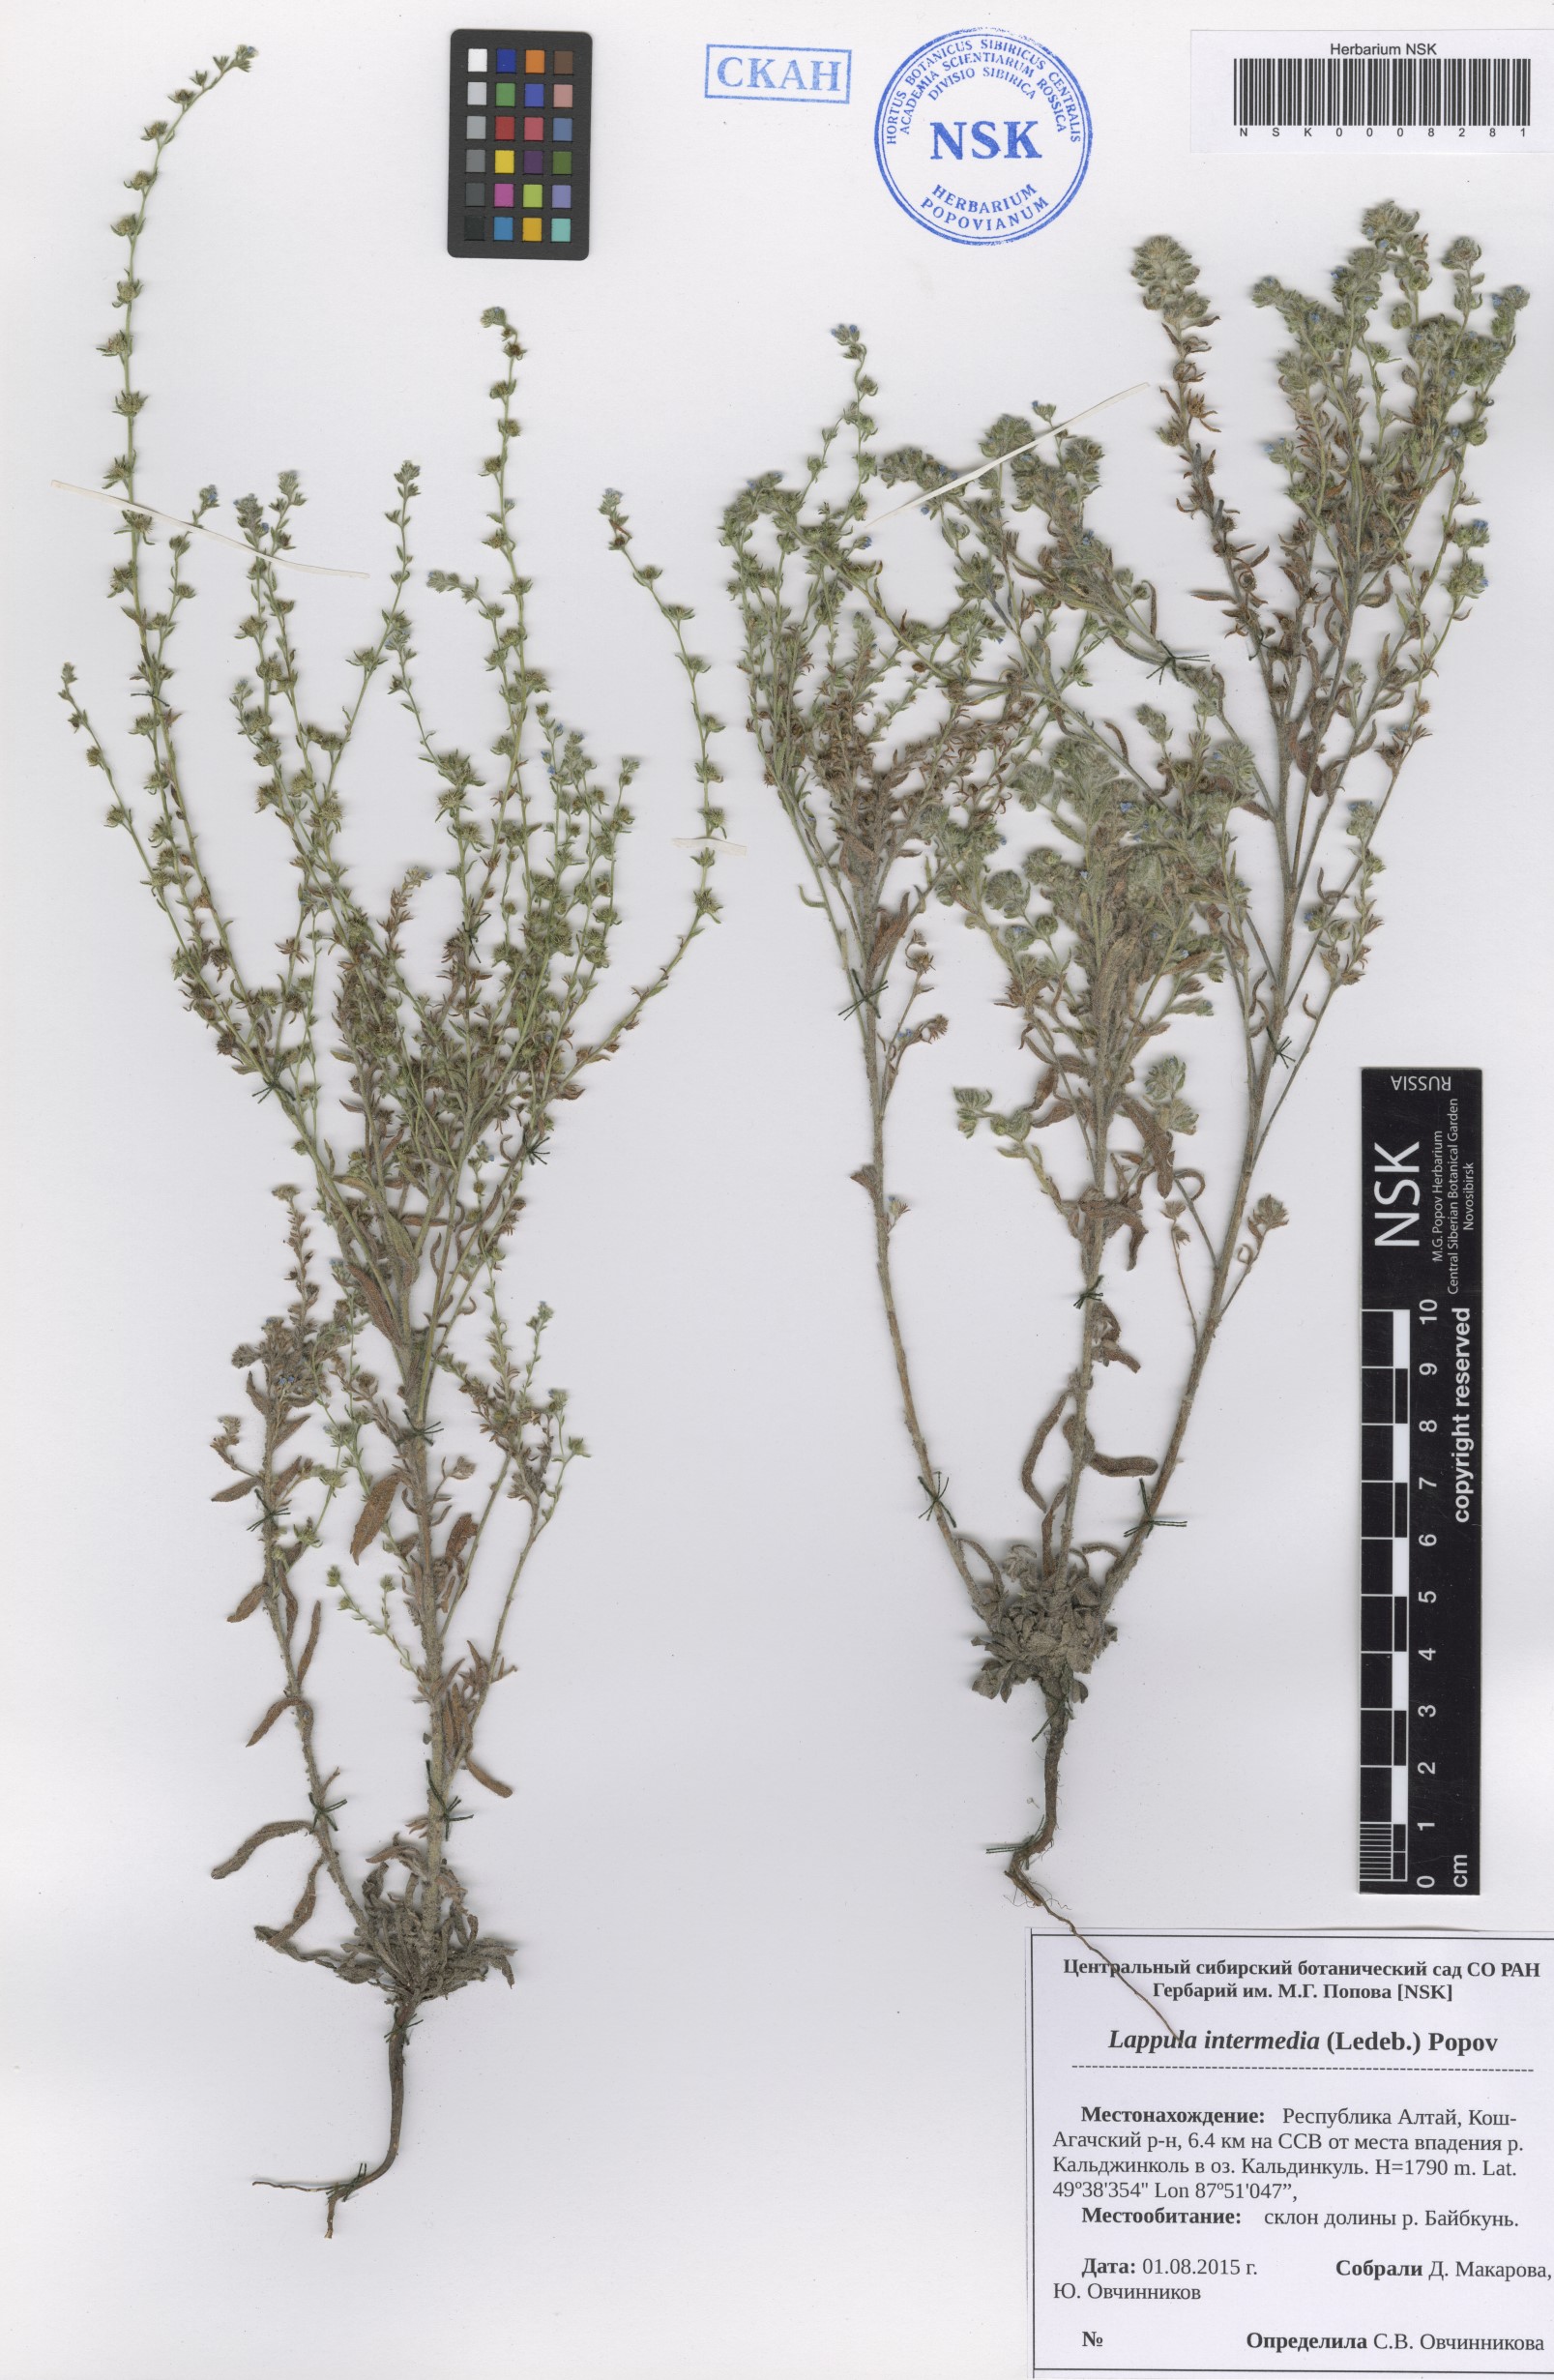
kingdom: Plantae
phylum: Tracheophyta
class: Magnoliopsida
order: Boraginales
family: Boraginaceae
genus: Lappula
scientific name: Lappula intermedia
